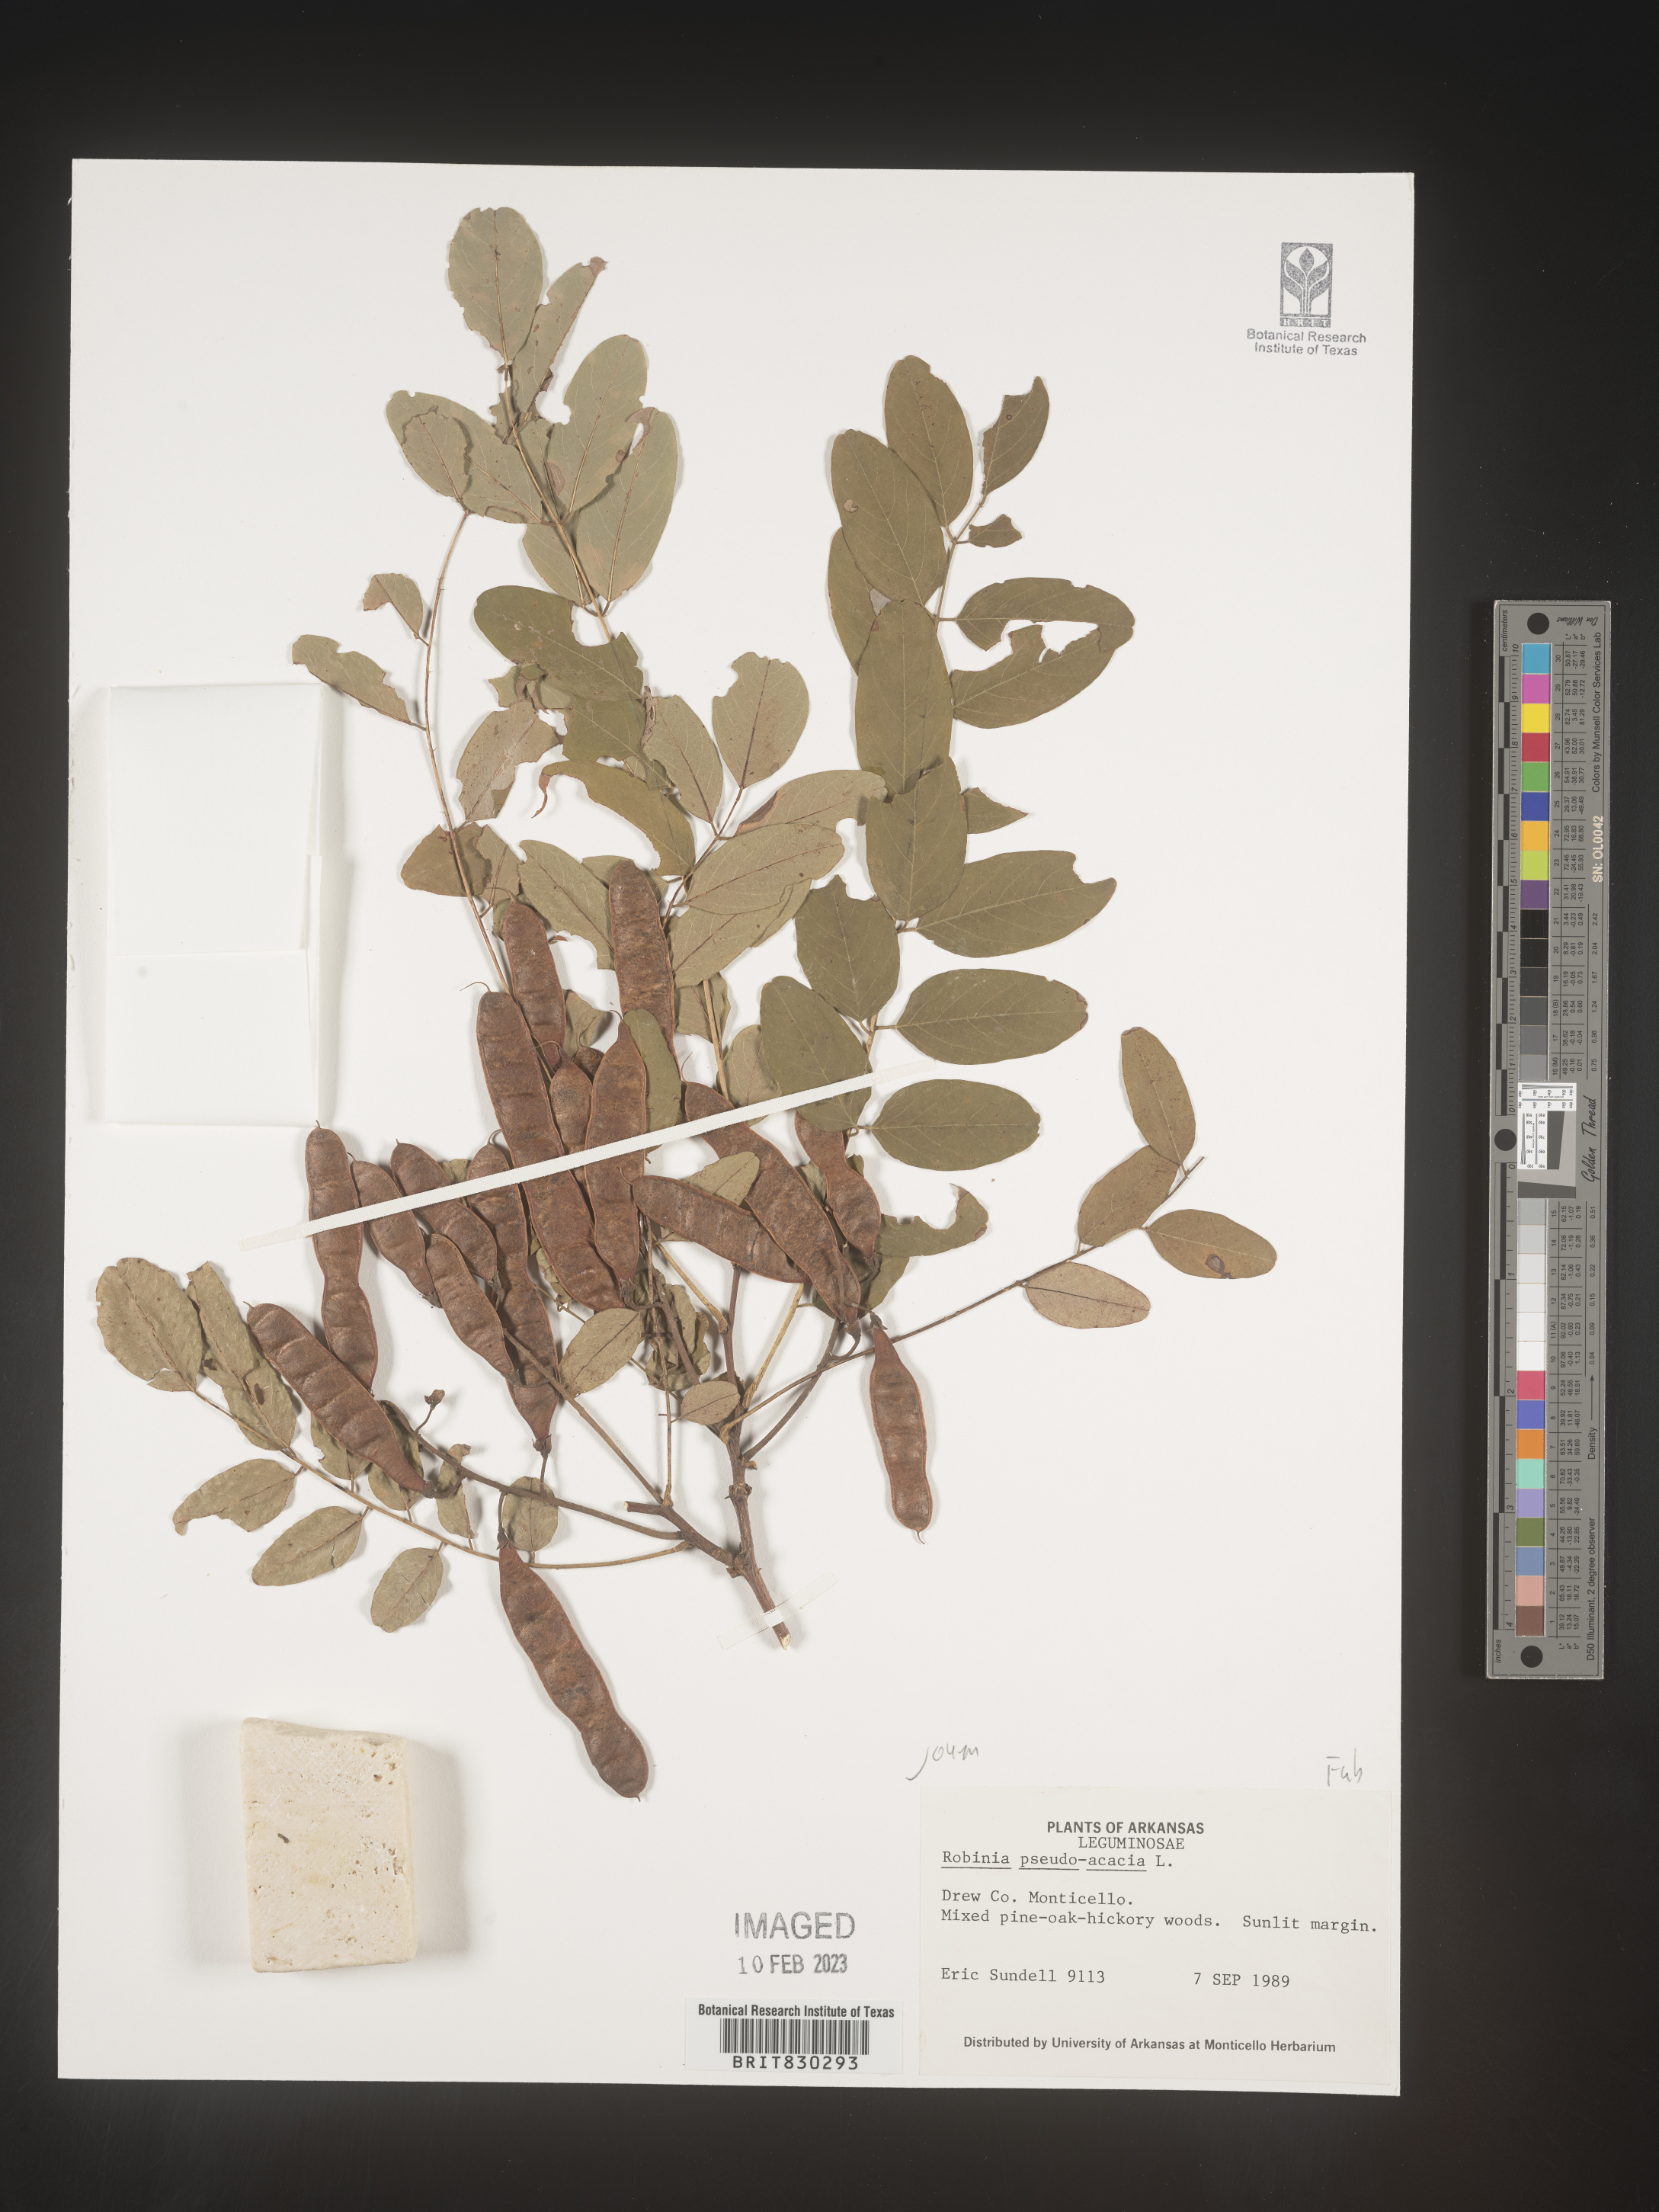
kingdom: Plantae
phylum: Tracheophyta
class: Magnoliopsida
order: Fabales
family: Fabaceae
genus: Robinia
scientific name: Robinia pseudoacacia
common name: Black locust
